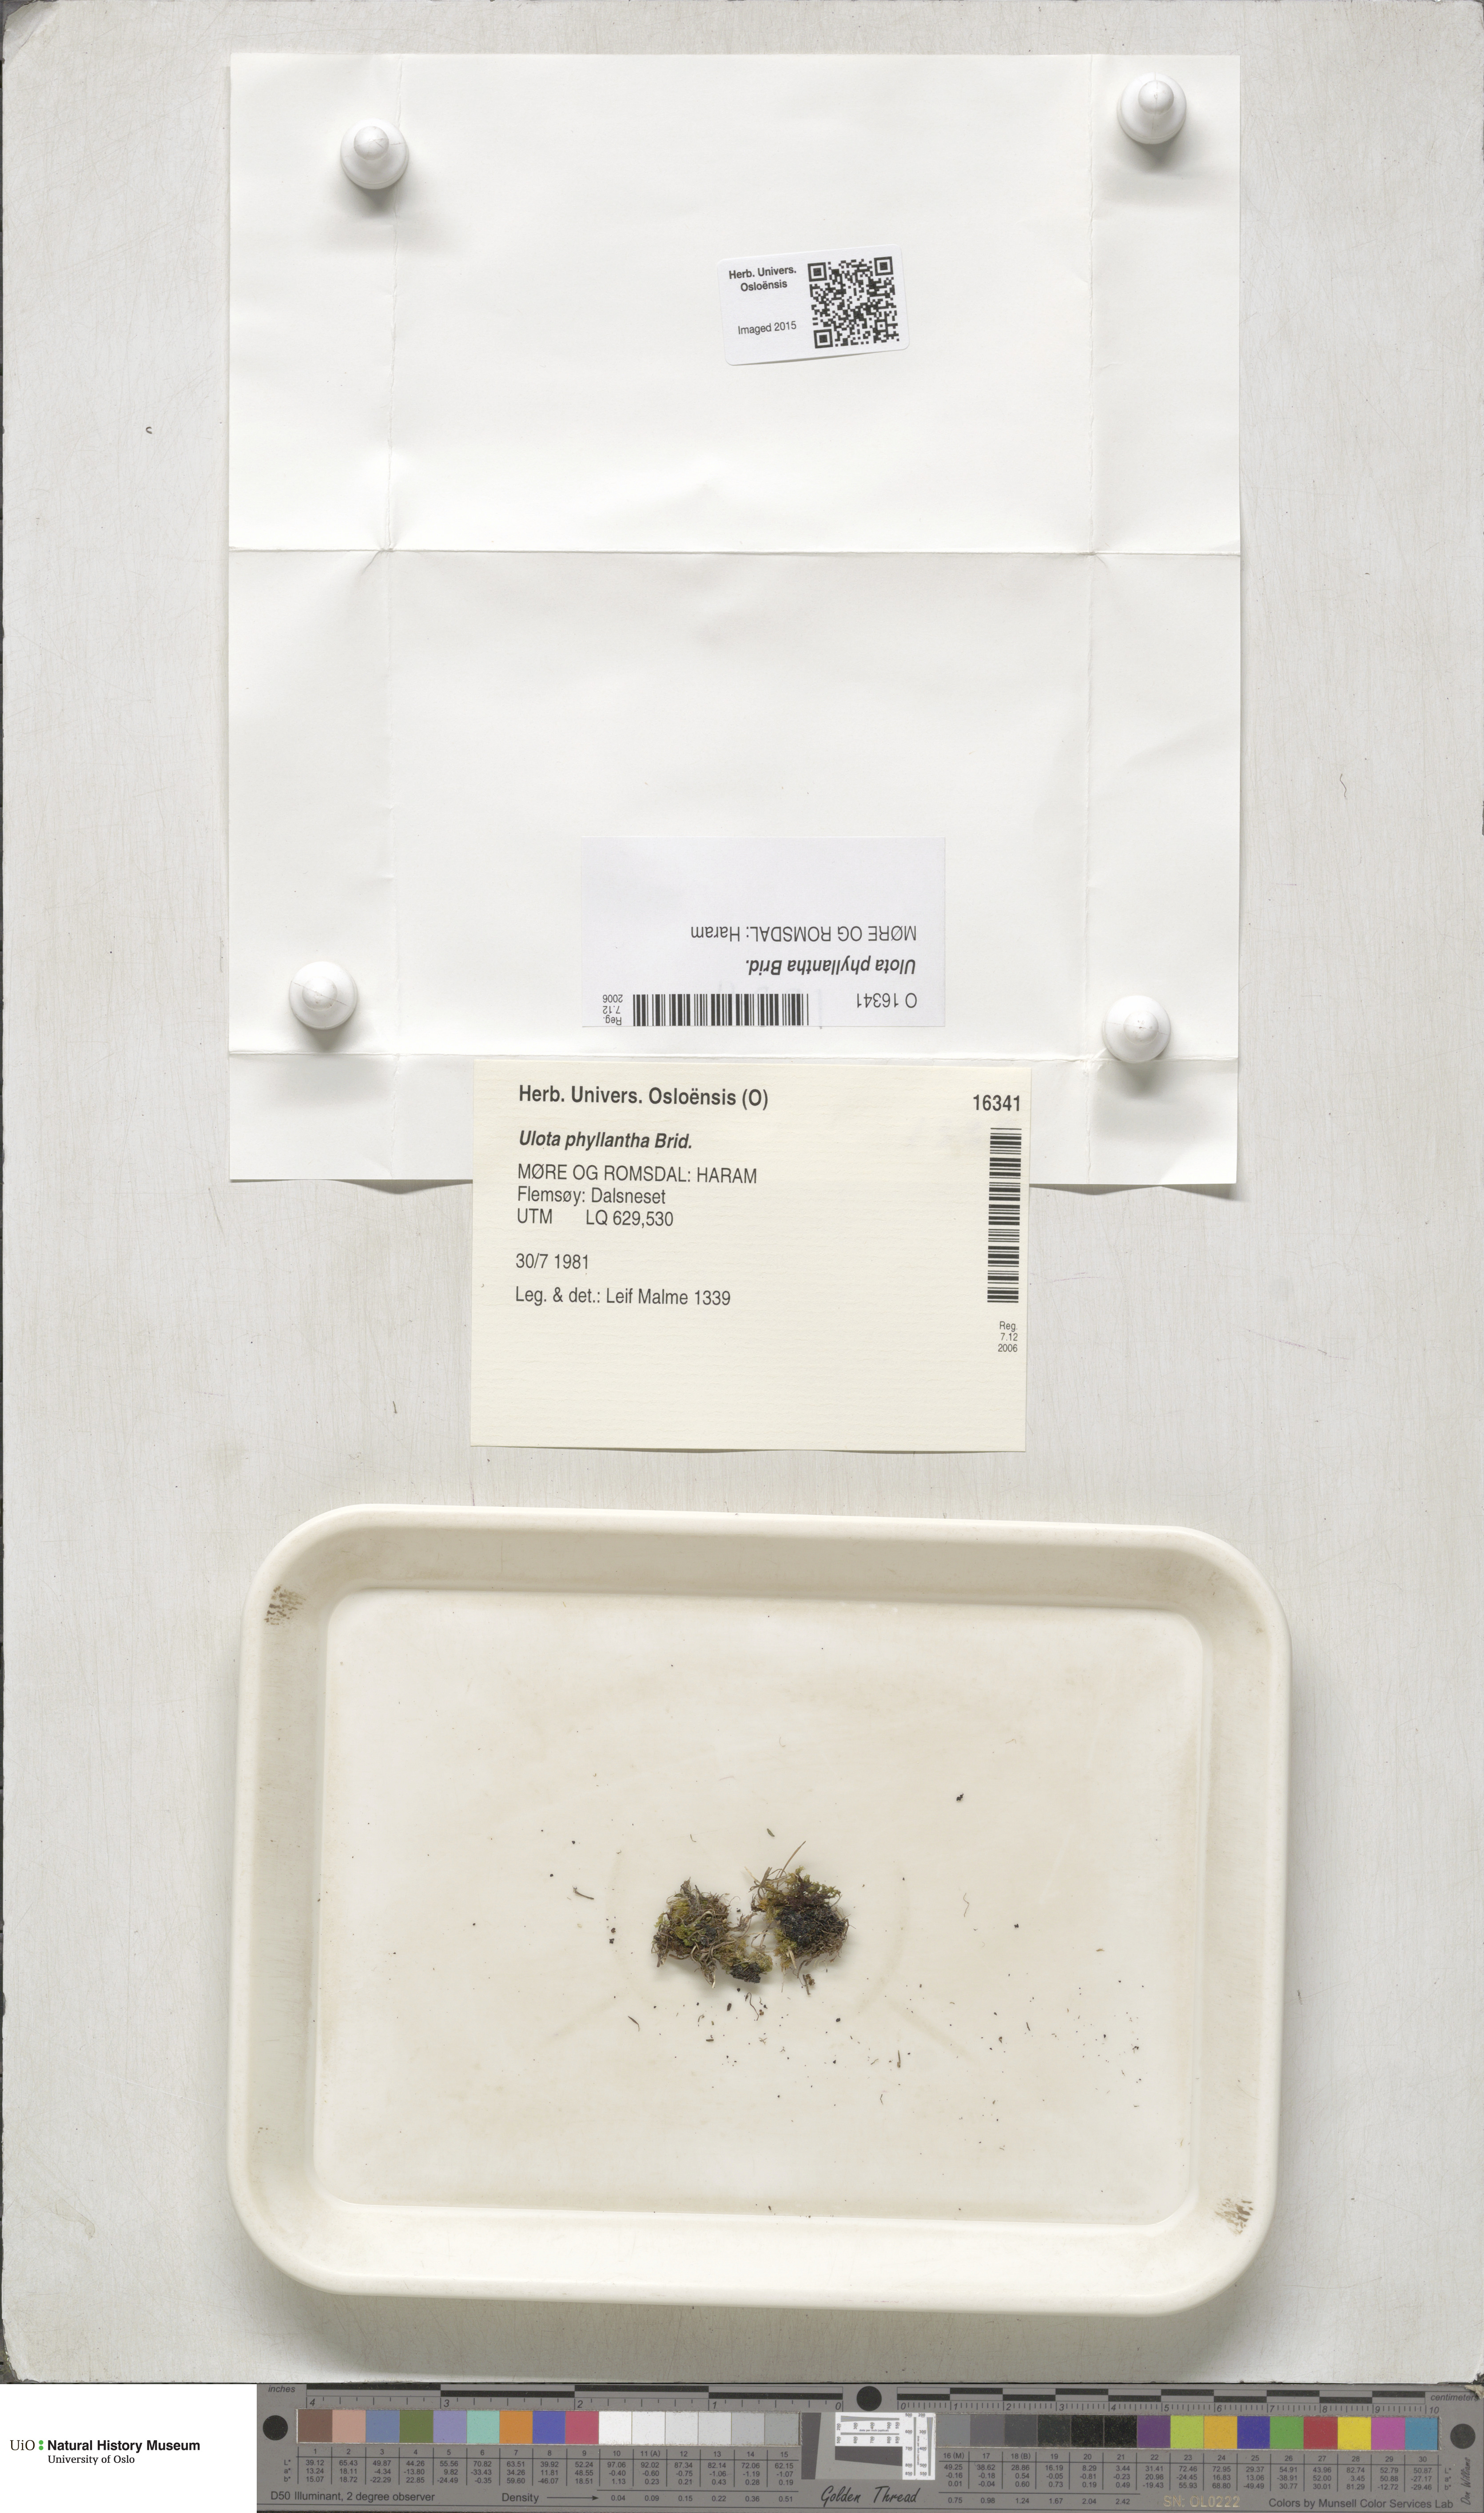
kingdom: Plantae
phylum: Bryophyta
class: Bryopsida
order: Orthotrichales
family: Orthotrichaceae
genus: Plenogemma
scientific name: Plenogemma phyllantha
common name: Frizzled pincushion
